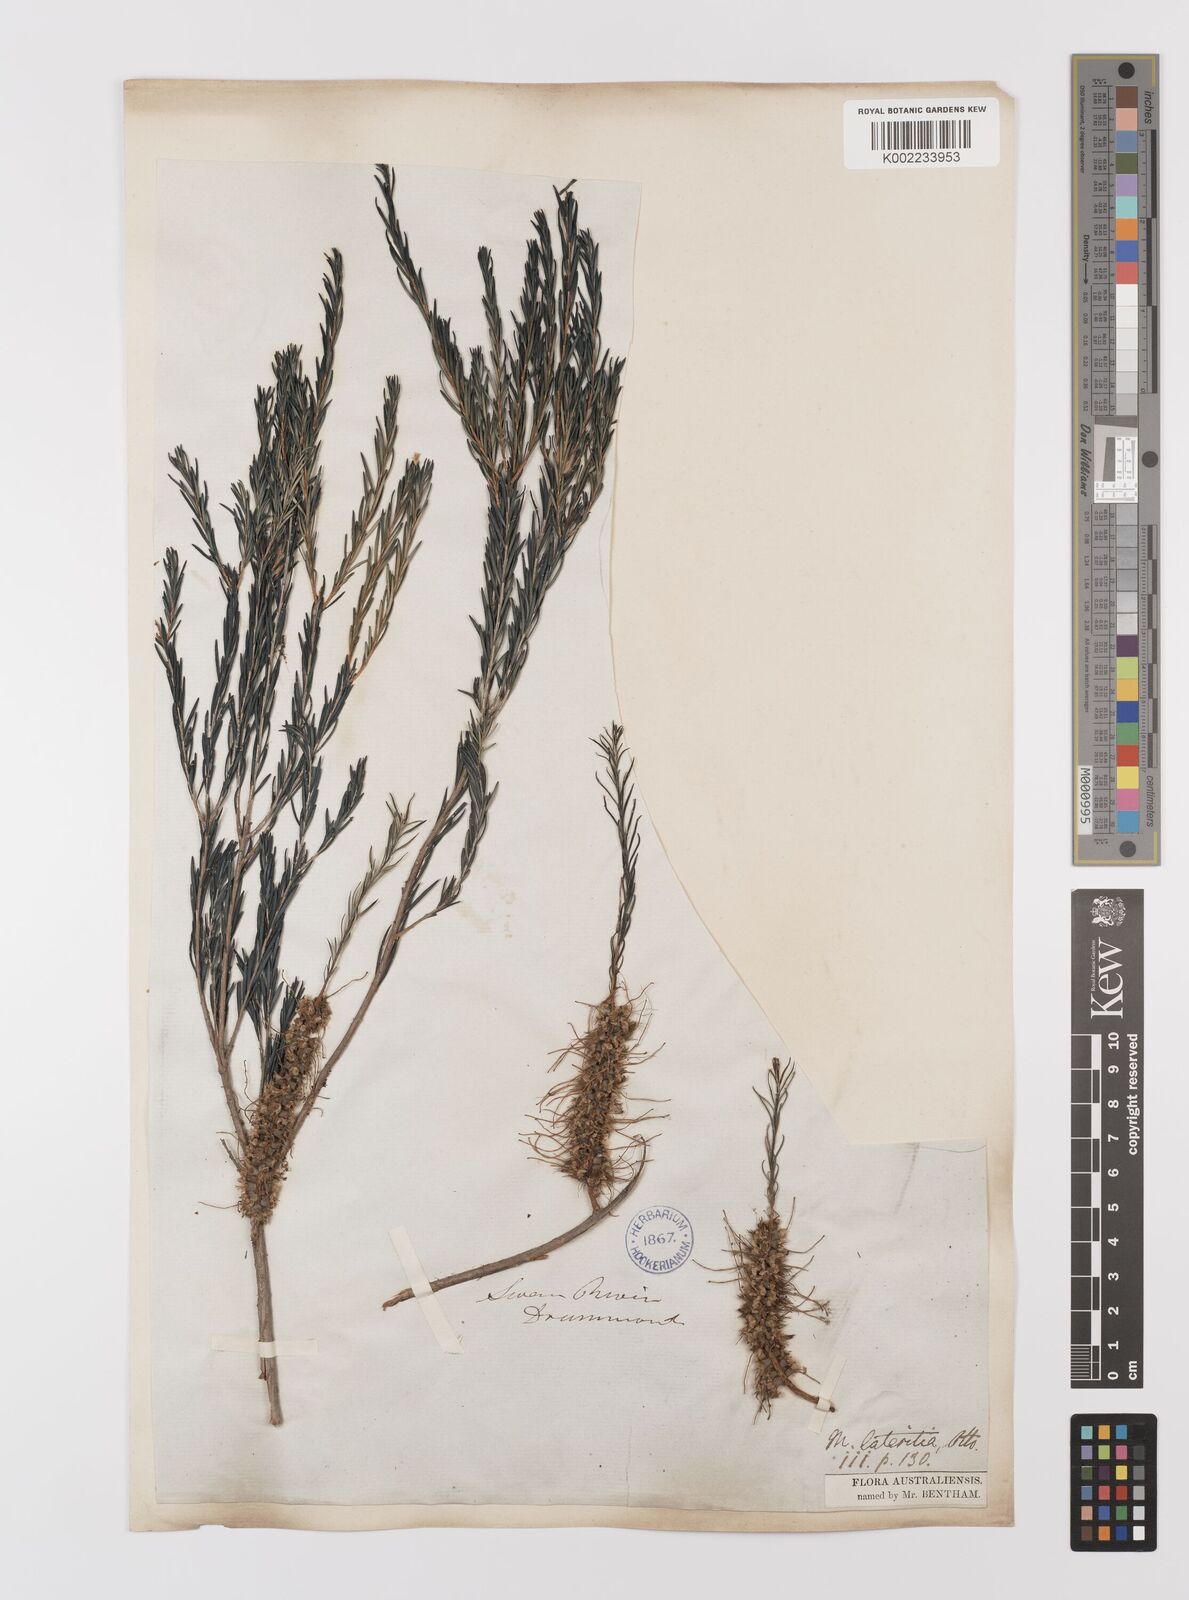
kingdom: Plantae
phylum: Tracheophyta
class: Magnoliopsida
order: Myrtales
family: Myrtaceae
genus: Melaleuca
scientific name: Melaleuca lateritia
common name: Robin red-breast
